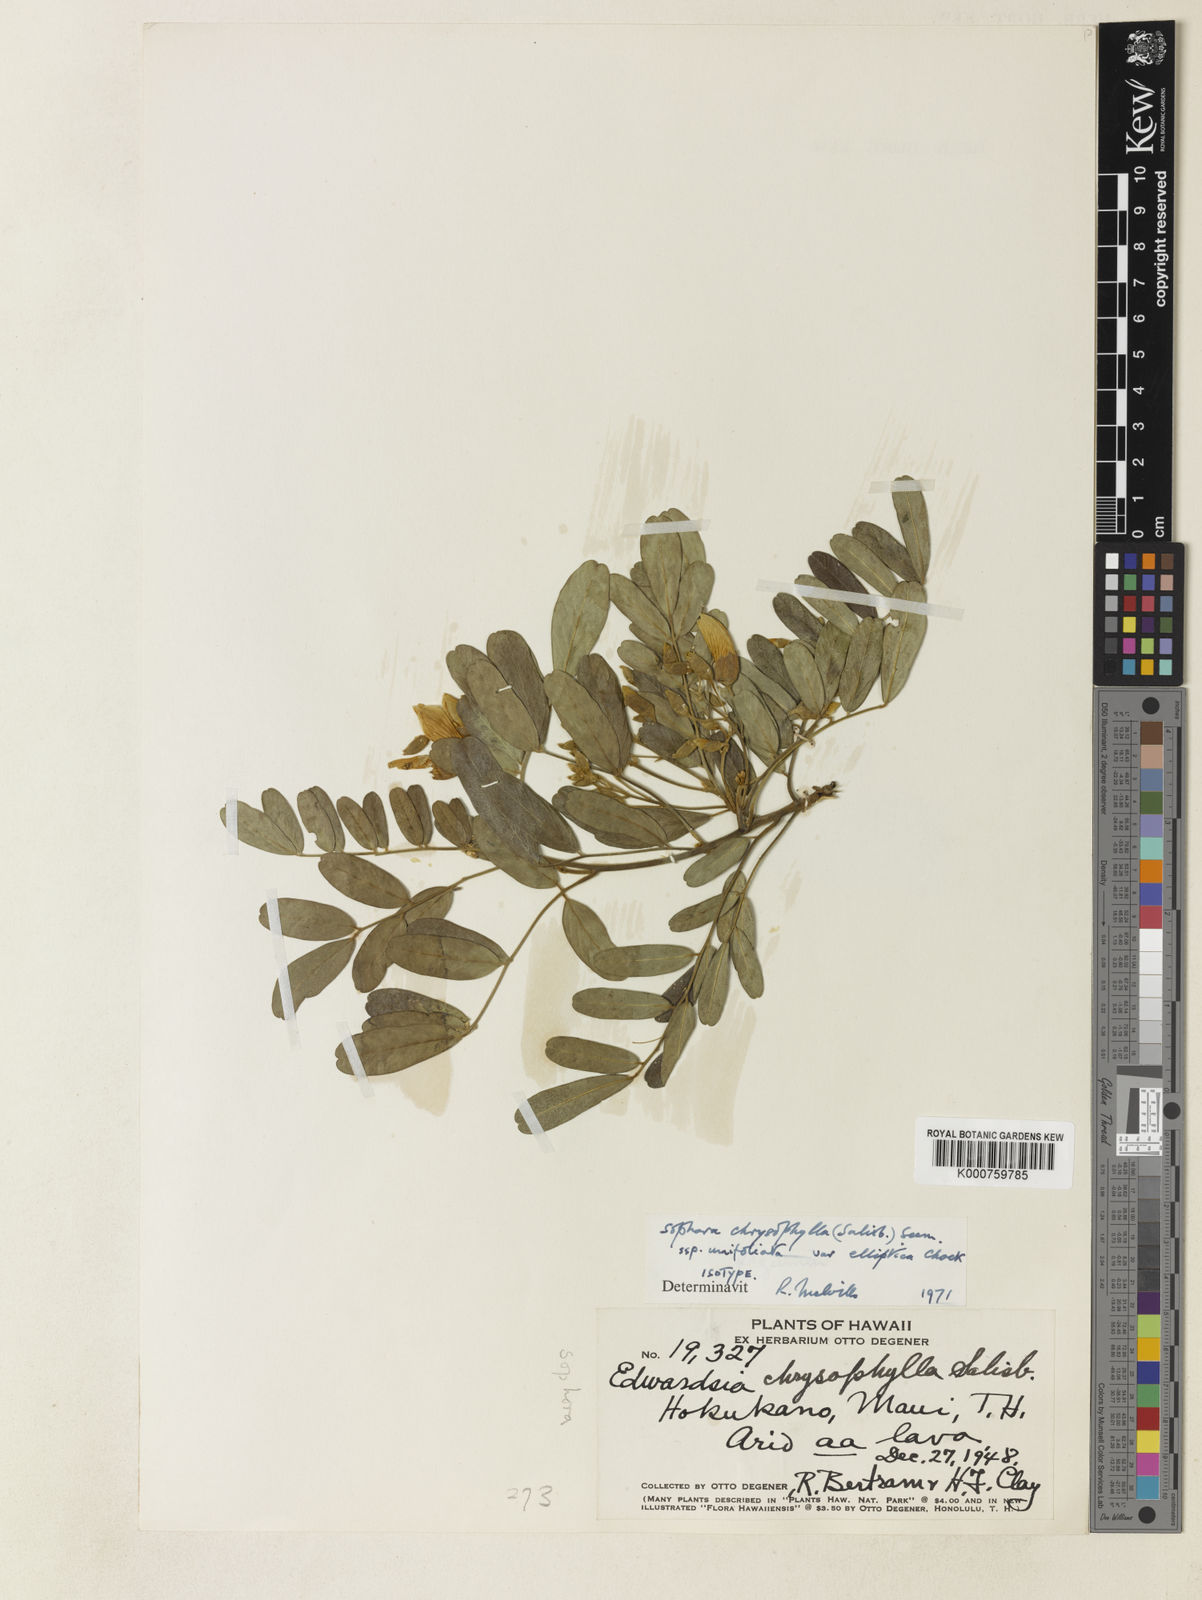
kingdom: Plantae
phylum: Tracheophyta
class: Magnoliopsida
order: Fabales
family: Fabaceae
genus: Sophora
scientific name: Sophora chrysophylla
